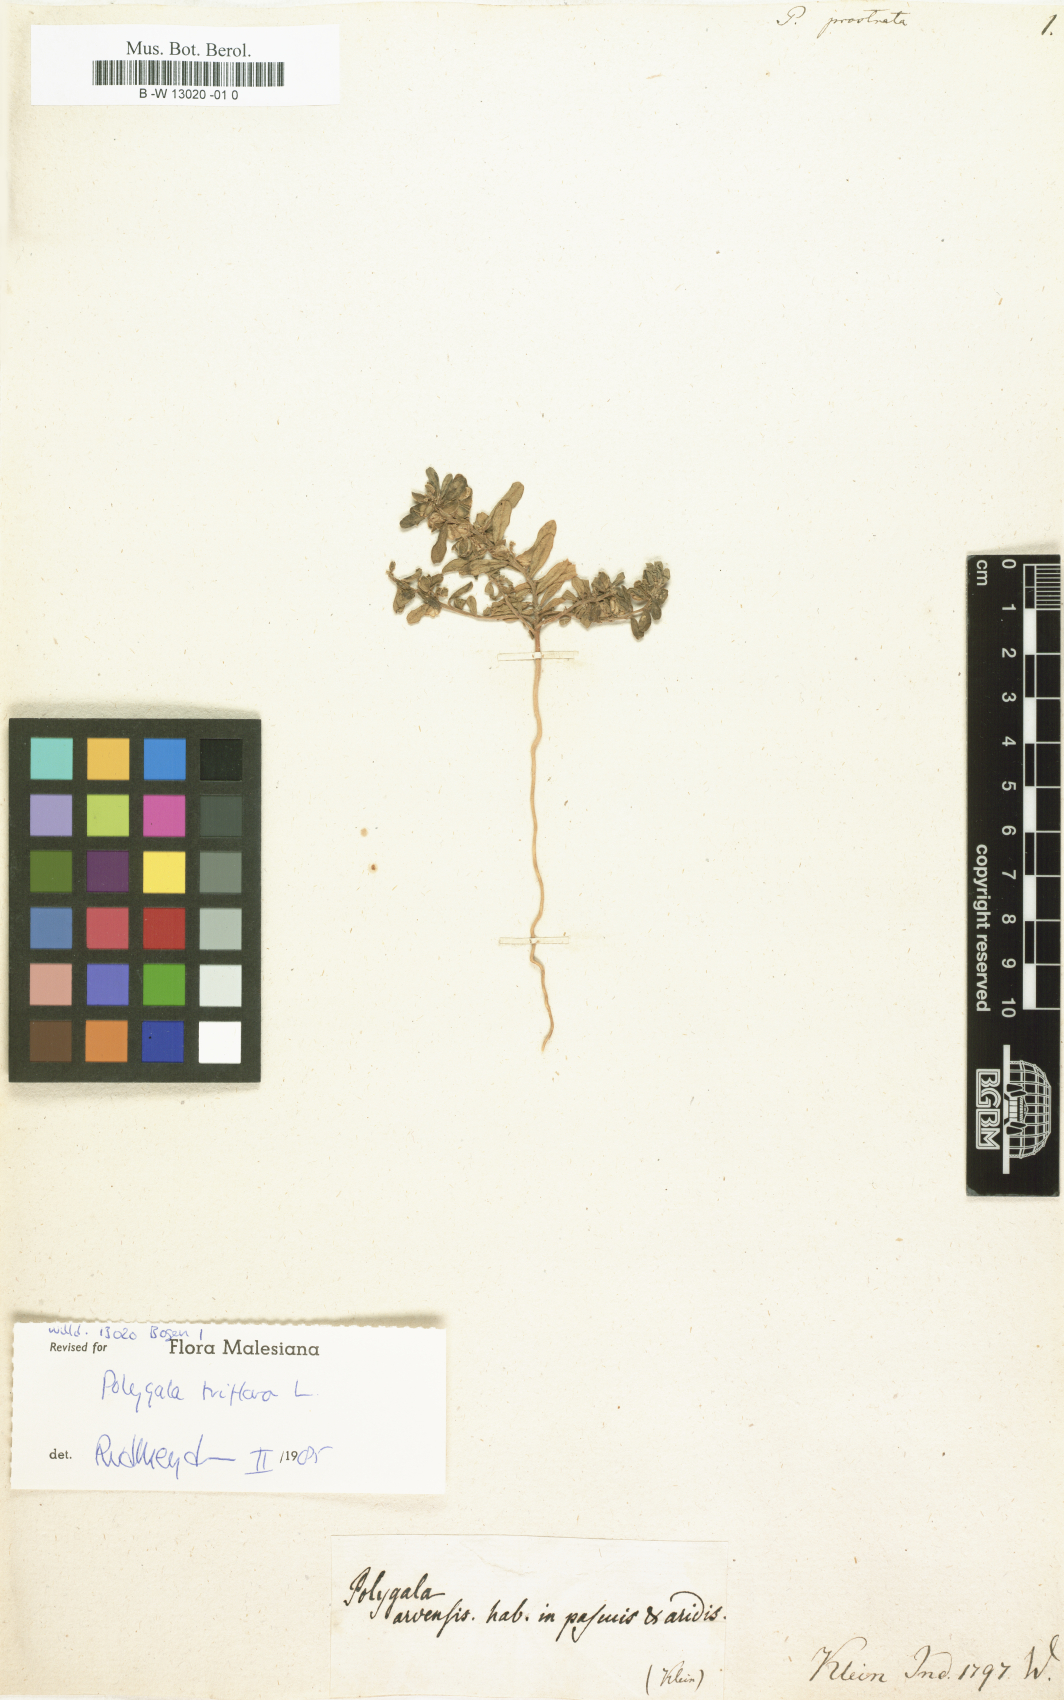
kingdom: Plantae
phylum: Tracheophyta
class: Magnoliopsida
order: Fabales
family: Polygalaceae
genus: Polygala
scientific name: Polygala
